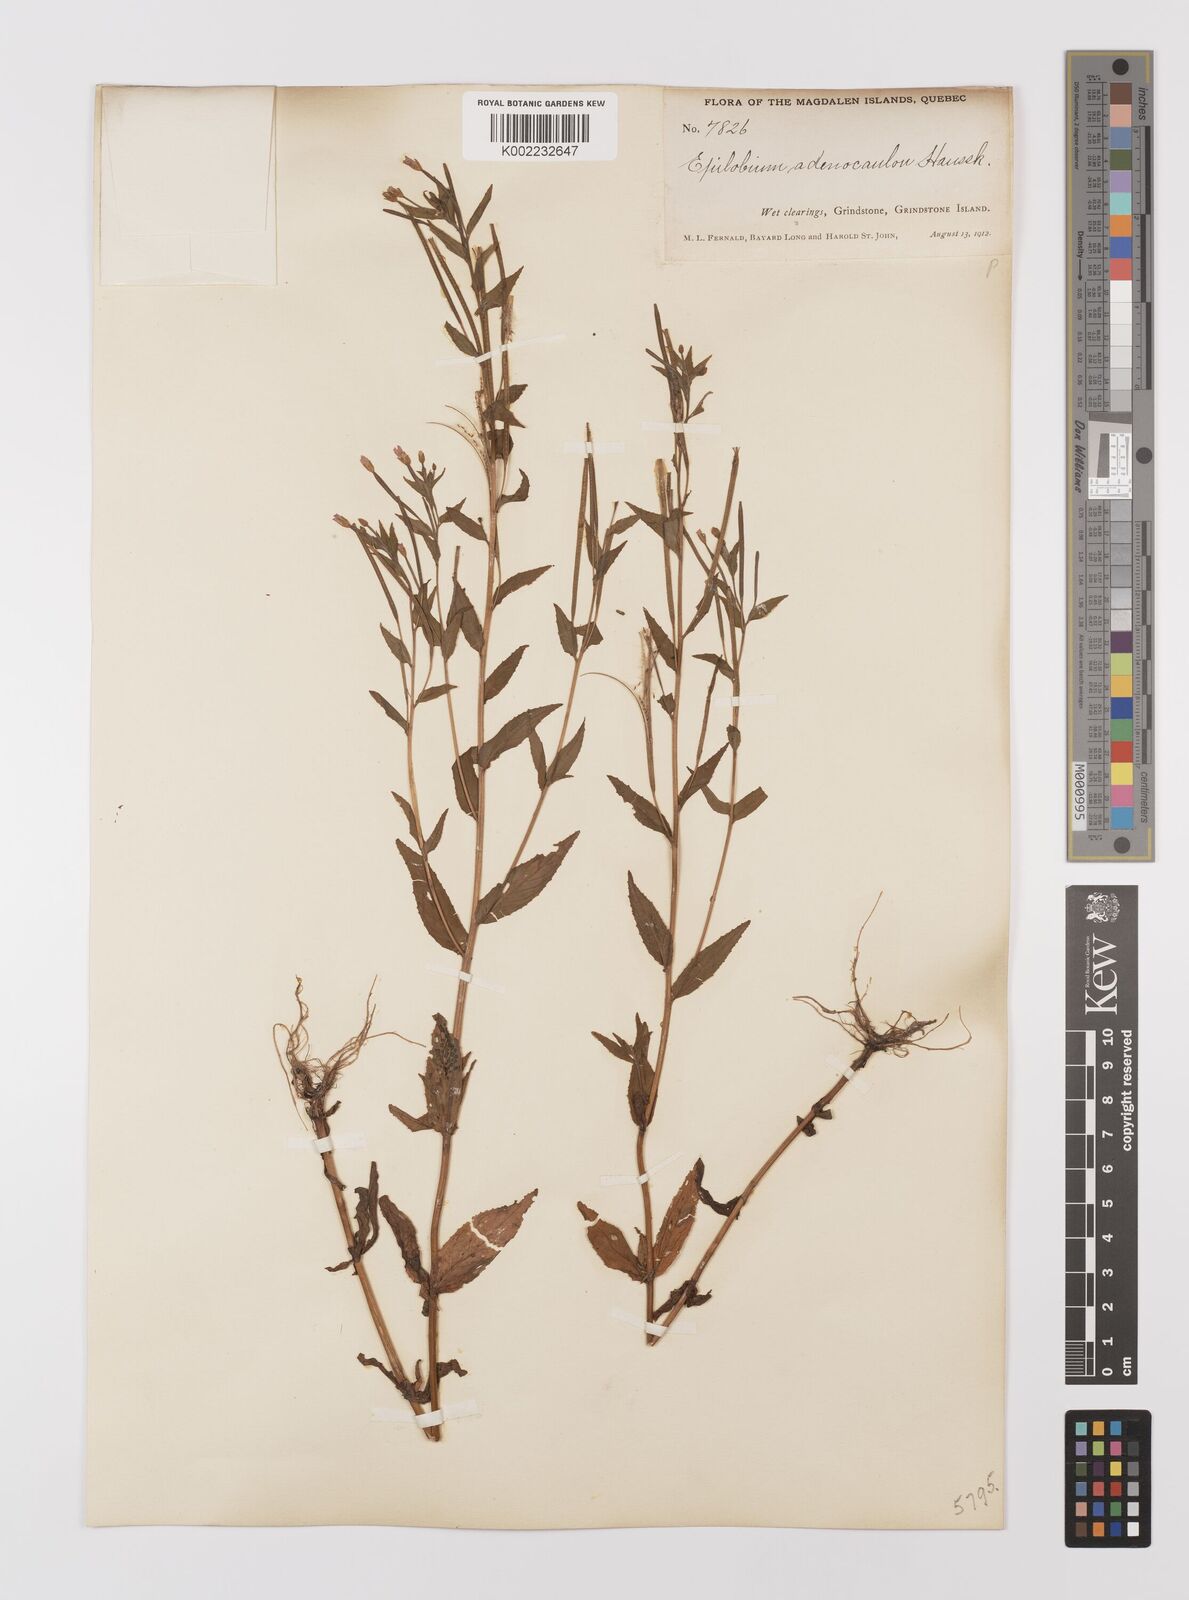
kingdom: Plantae
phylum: Tracheophyta
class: Magnoliopsida
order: Myrtales
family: Onagraceae
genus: Epilobium
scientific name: Epilobium ciliatum
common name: American willowherb
